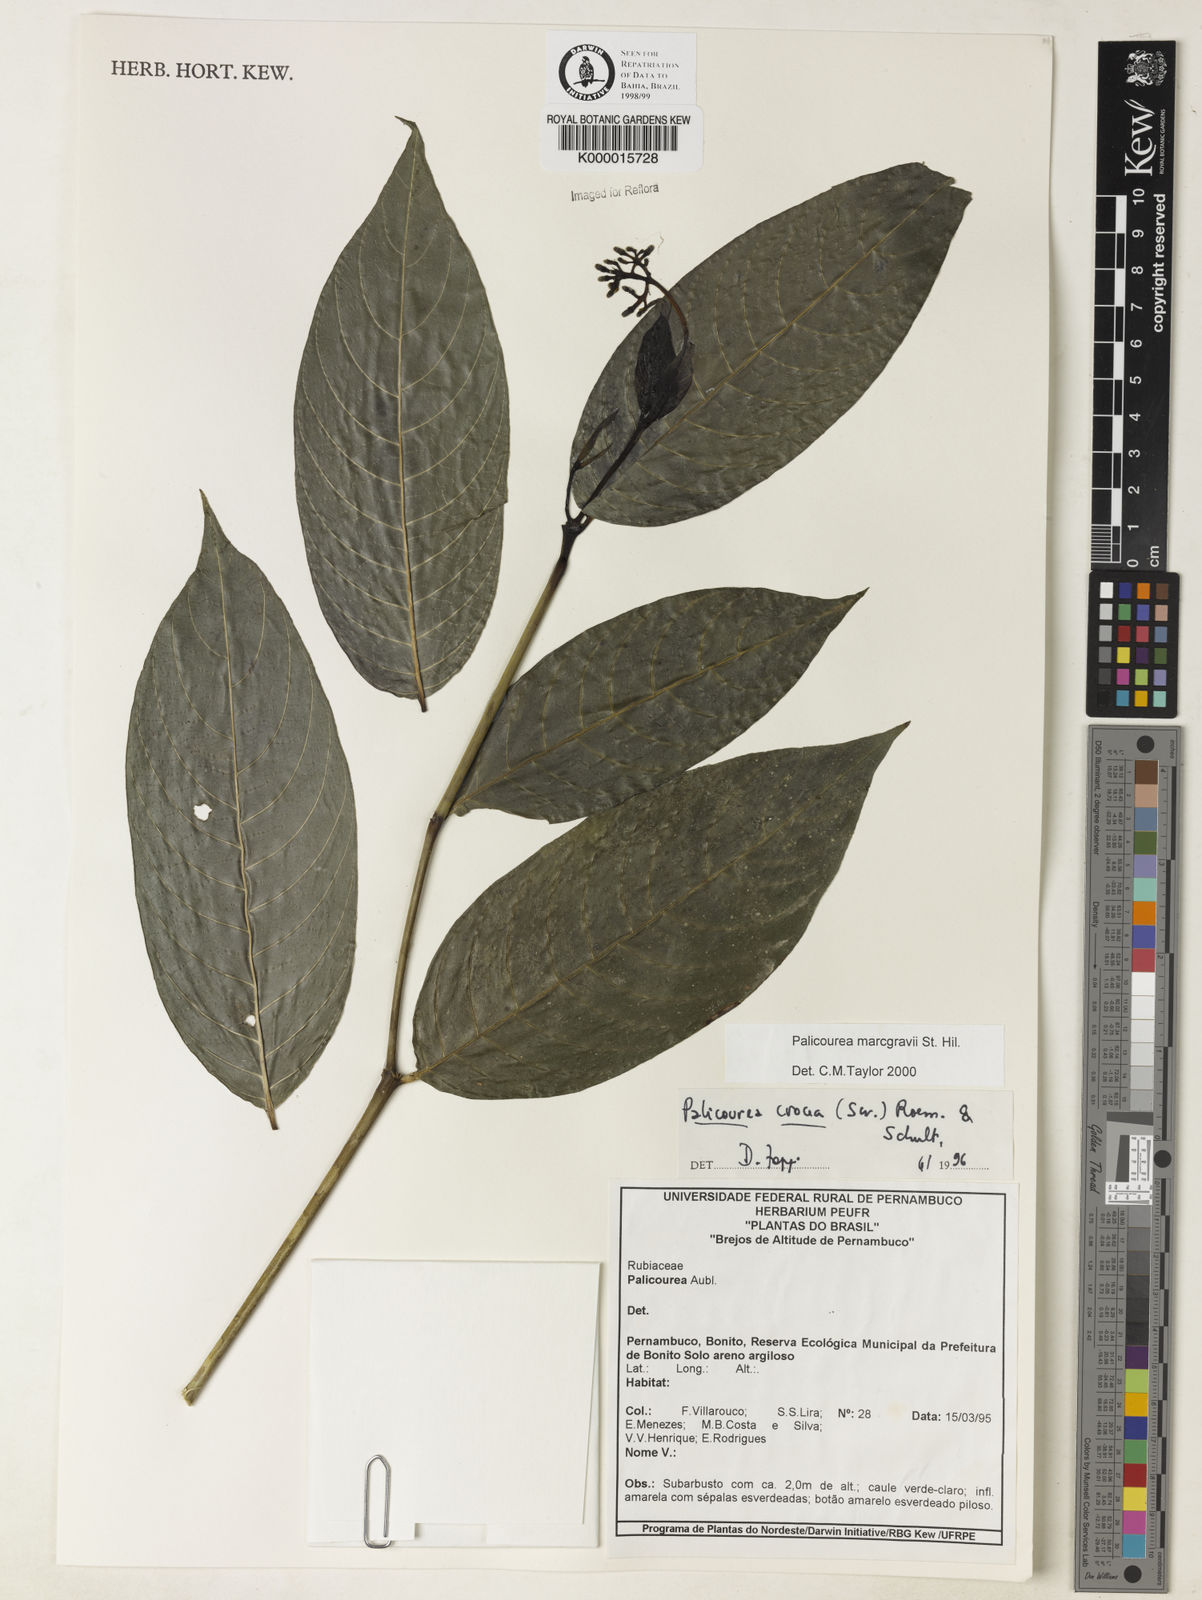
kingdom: Plantae
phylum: Tracheophyta
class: Magnoliopsida
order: Gentianales
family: Rubiaceae
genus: Palicourea
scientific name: Palicourea marcgravii
